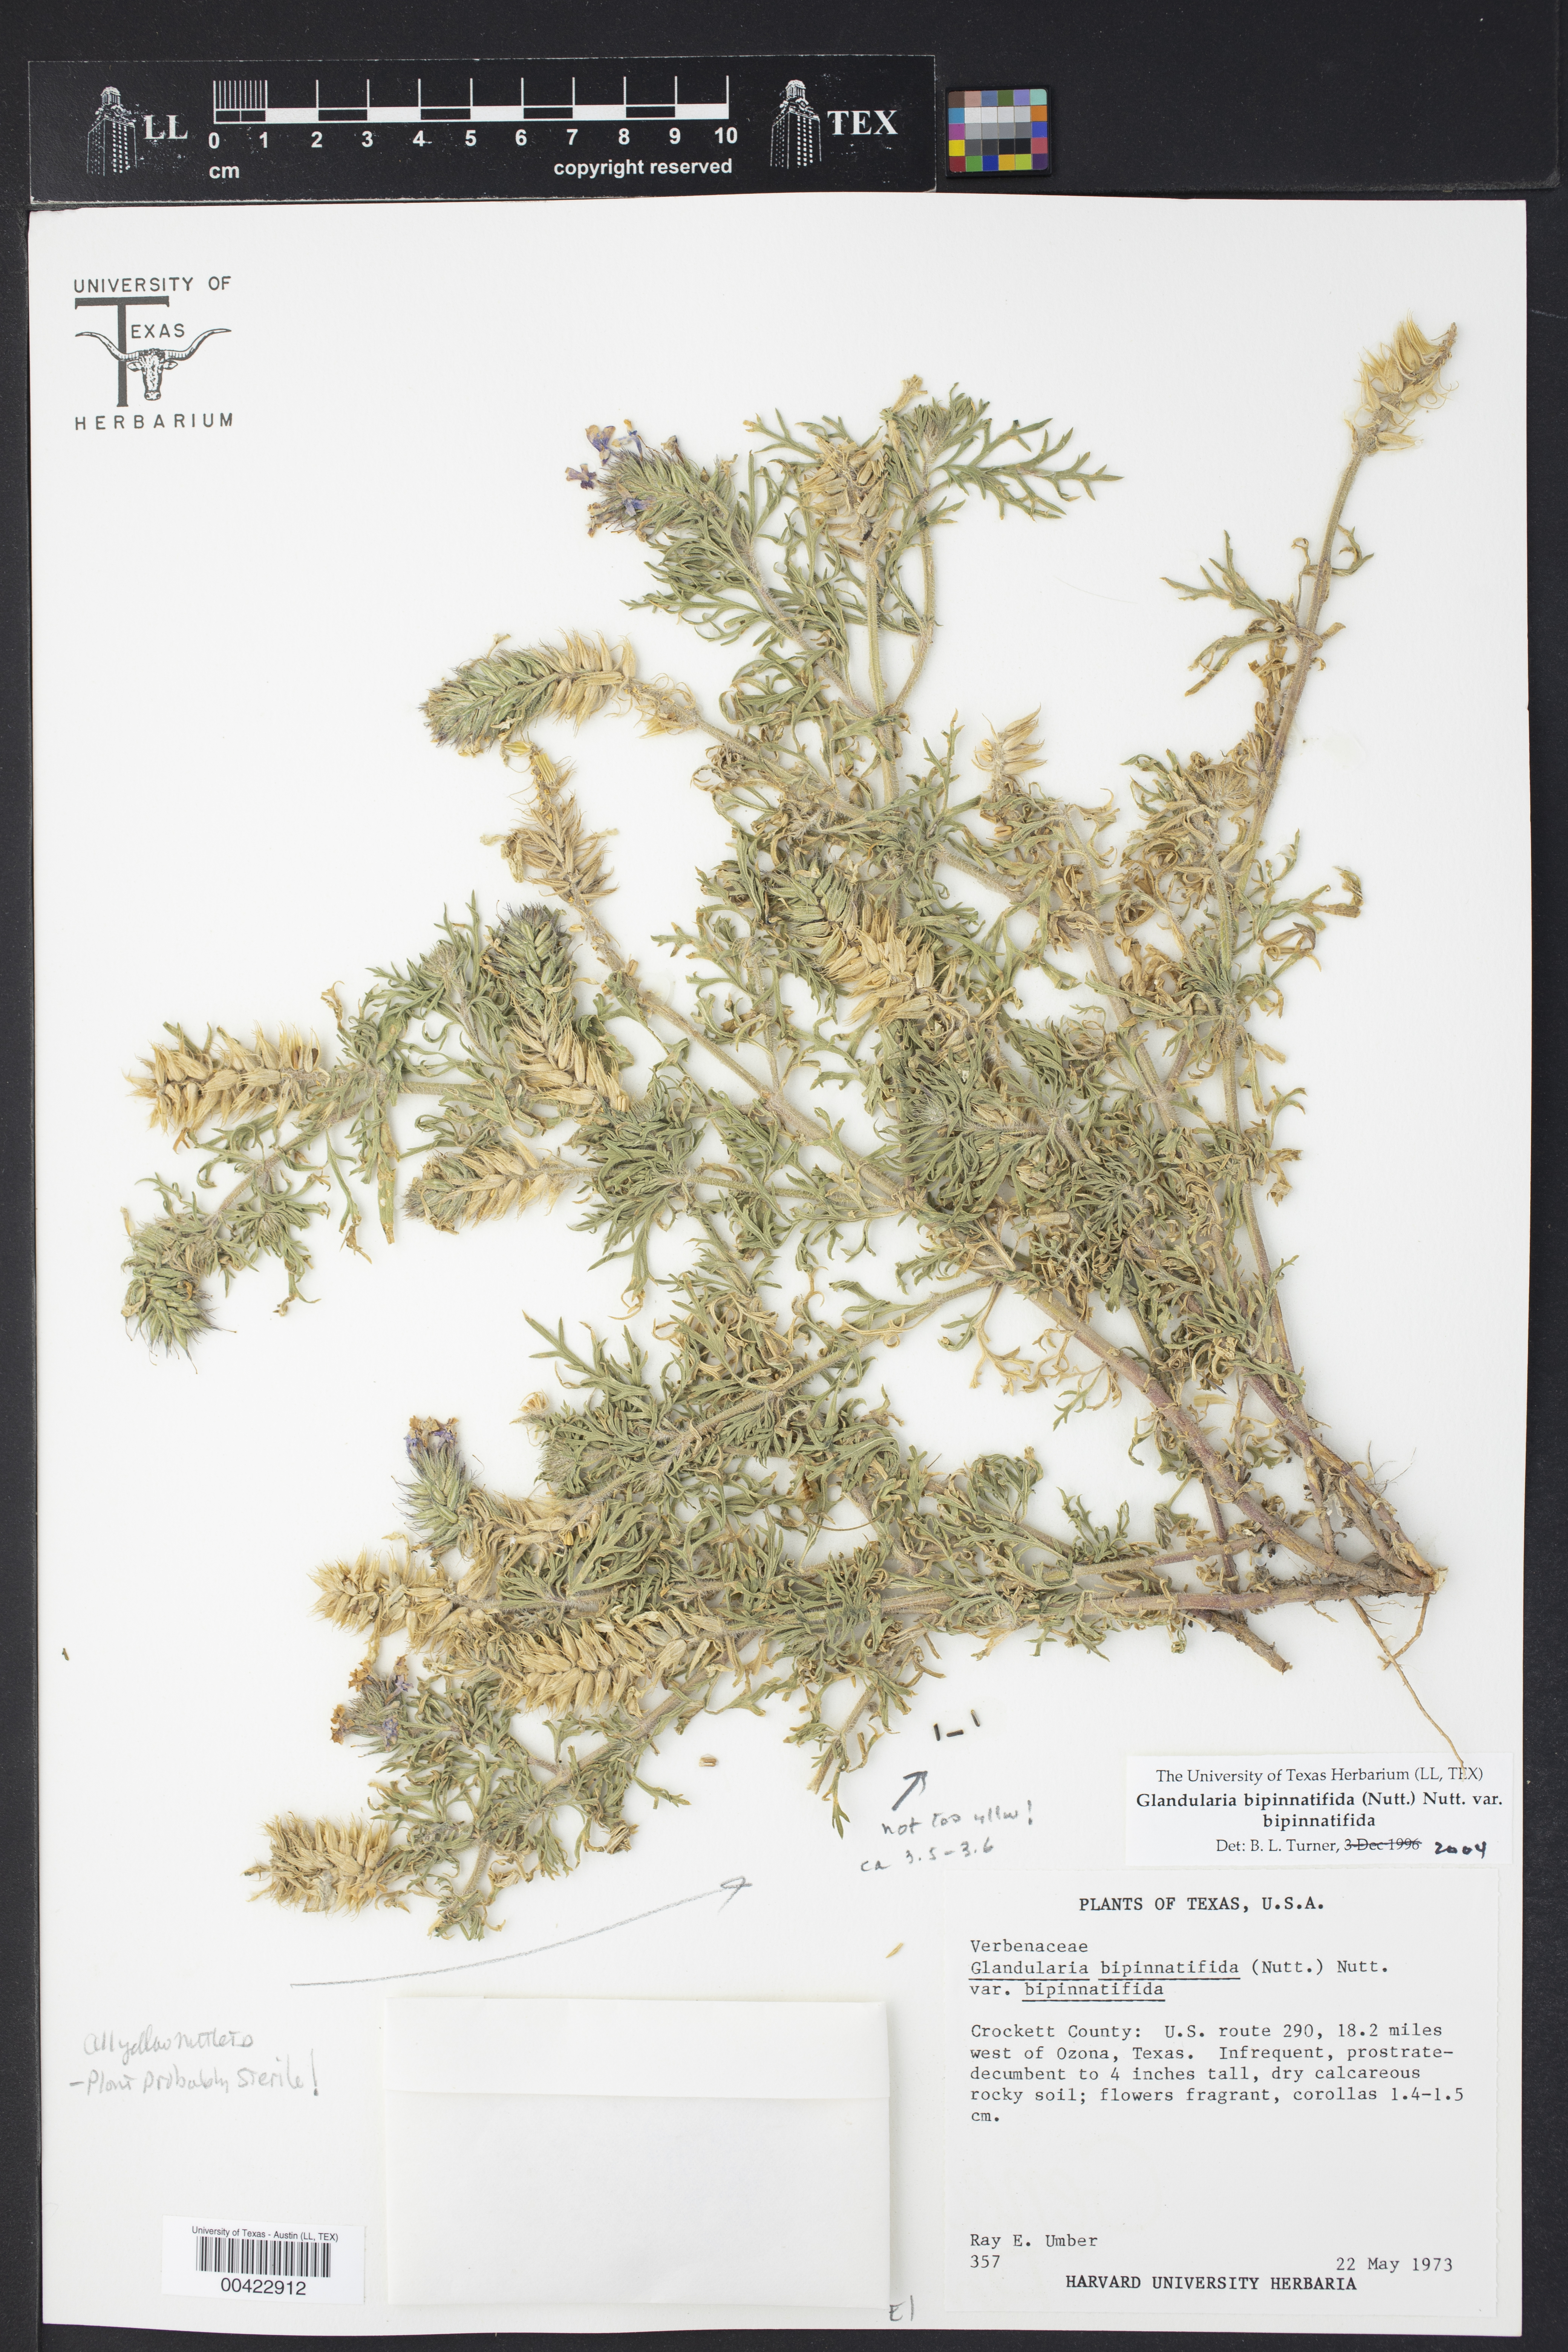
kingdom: Plantae
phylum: Tracheophyta
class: Magnoliopsida
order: Lamiales
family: Verbenaceae
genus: Verbena
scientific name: Verbena bipinnatifida
